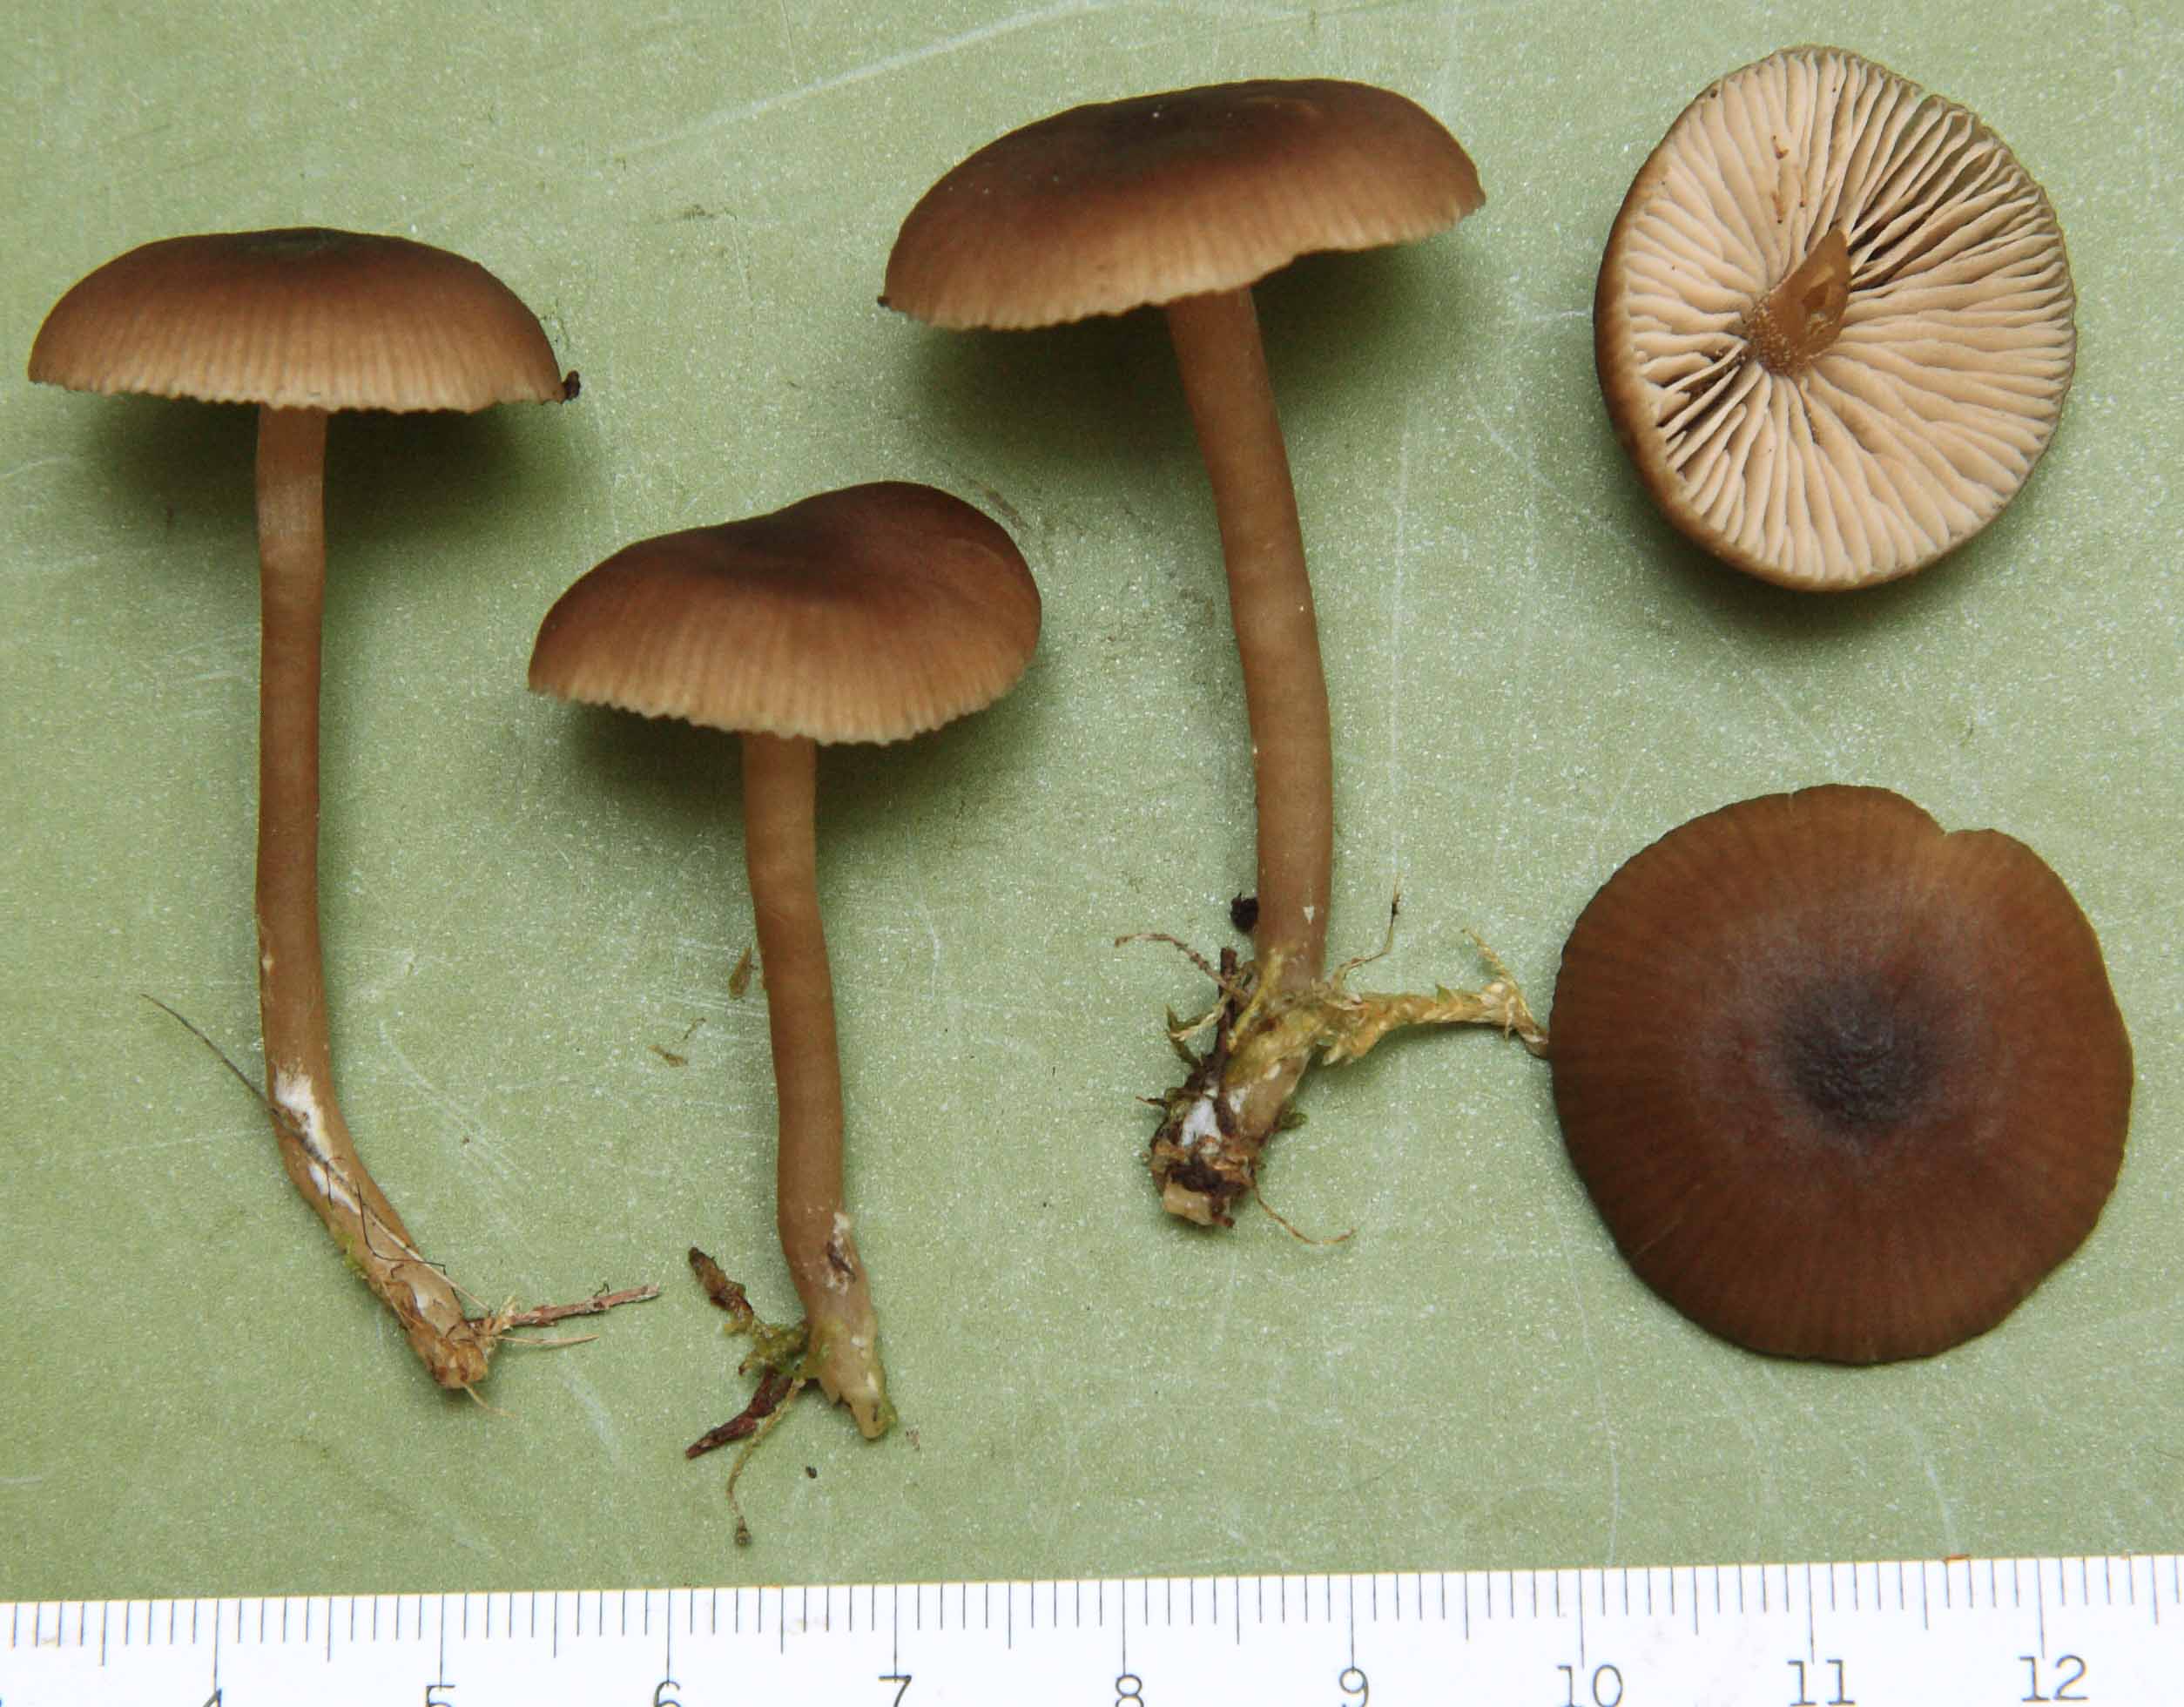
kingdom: Fungi
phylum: Basidiomycota
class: Agaricomycetes
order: Agaricales
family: Entolomataceae
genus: Entocybe
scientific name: Entocybe vinacea
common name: november-rødblad
